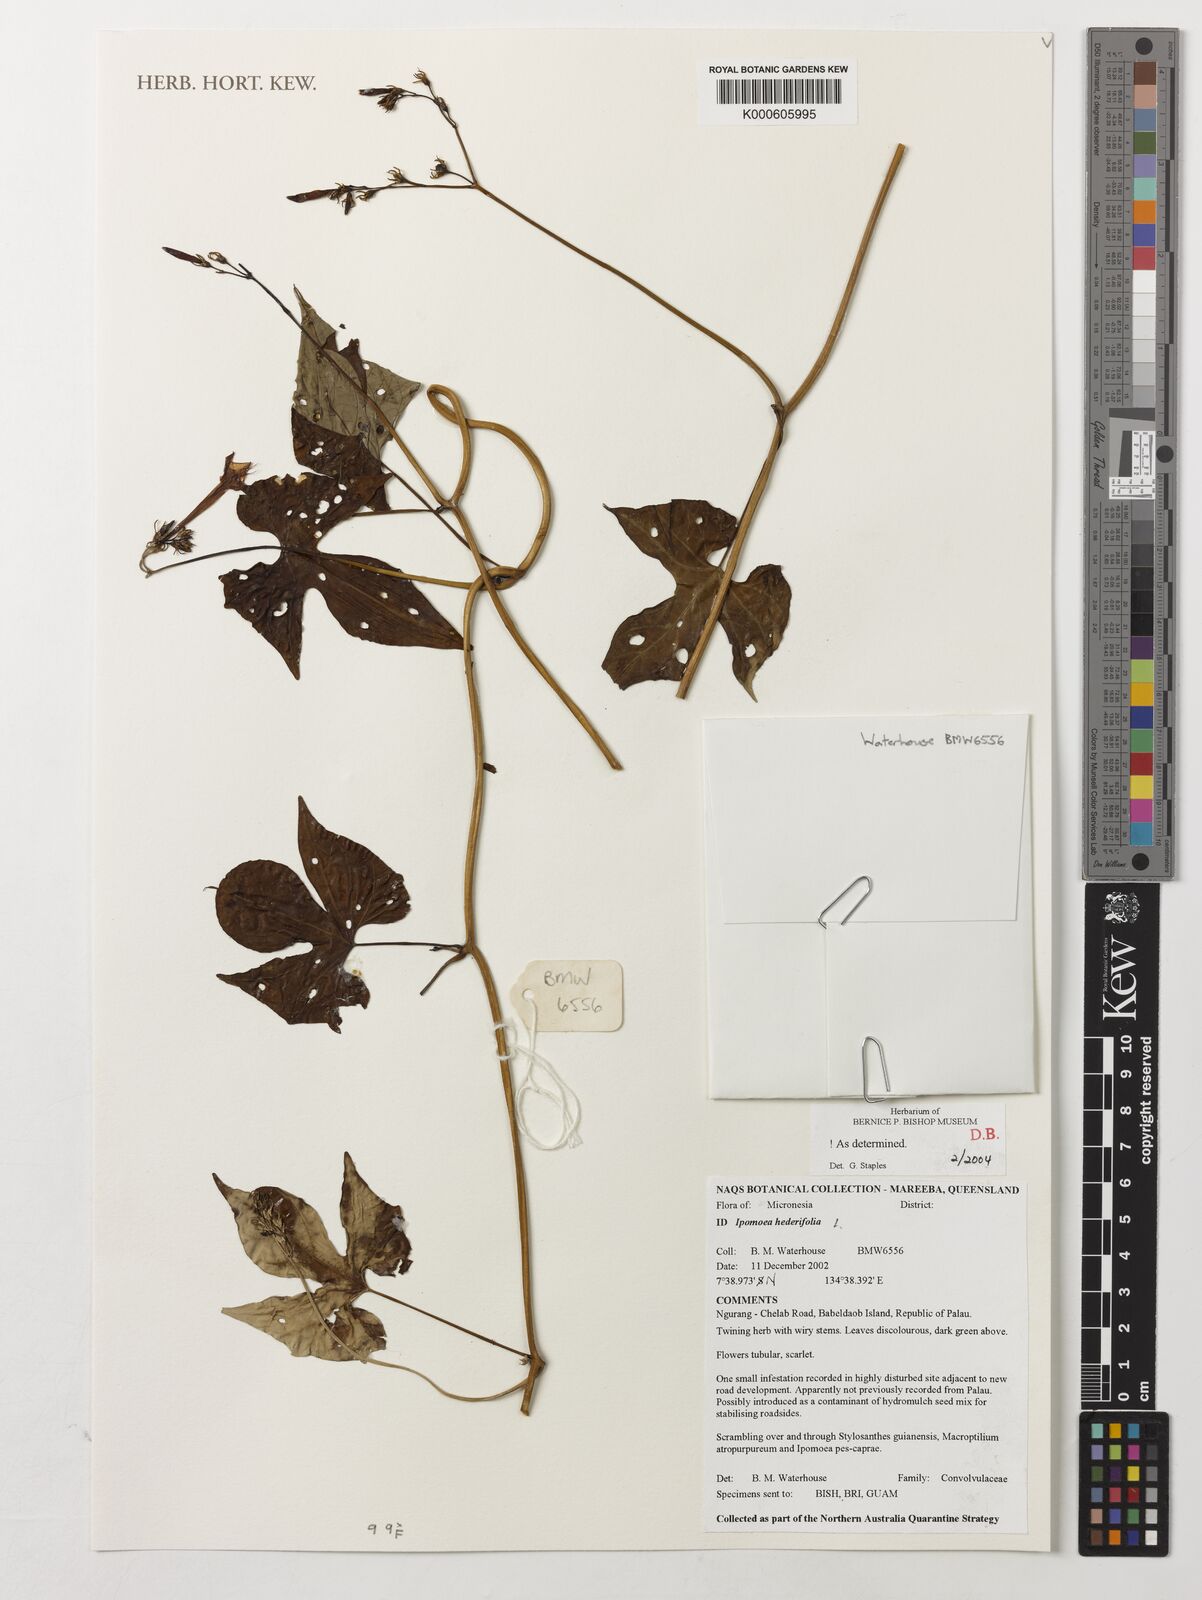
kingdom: Plantae
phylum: Tracheophyta
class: Magnoliopsida
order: Solanales
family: Convolvulaceae
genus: Ipomoea
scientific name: Ipomoea hederifolia
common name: Ivy-leaf morning-glory
